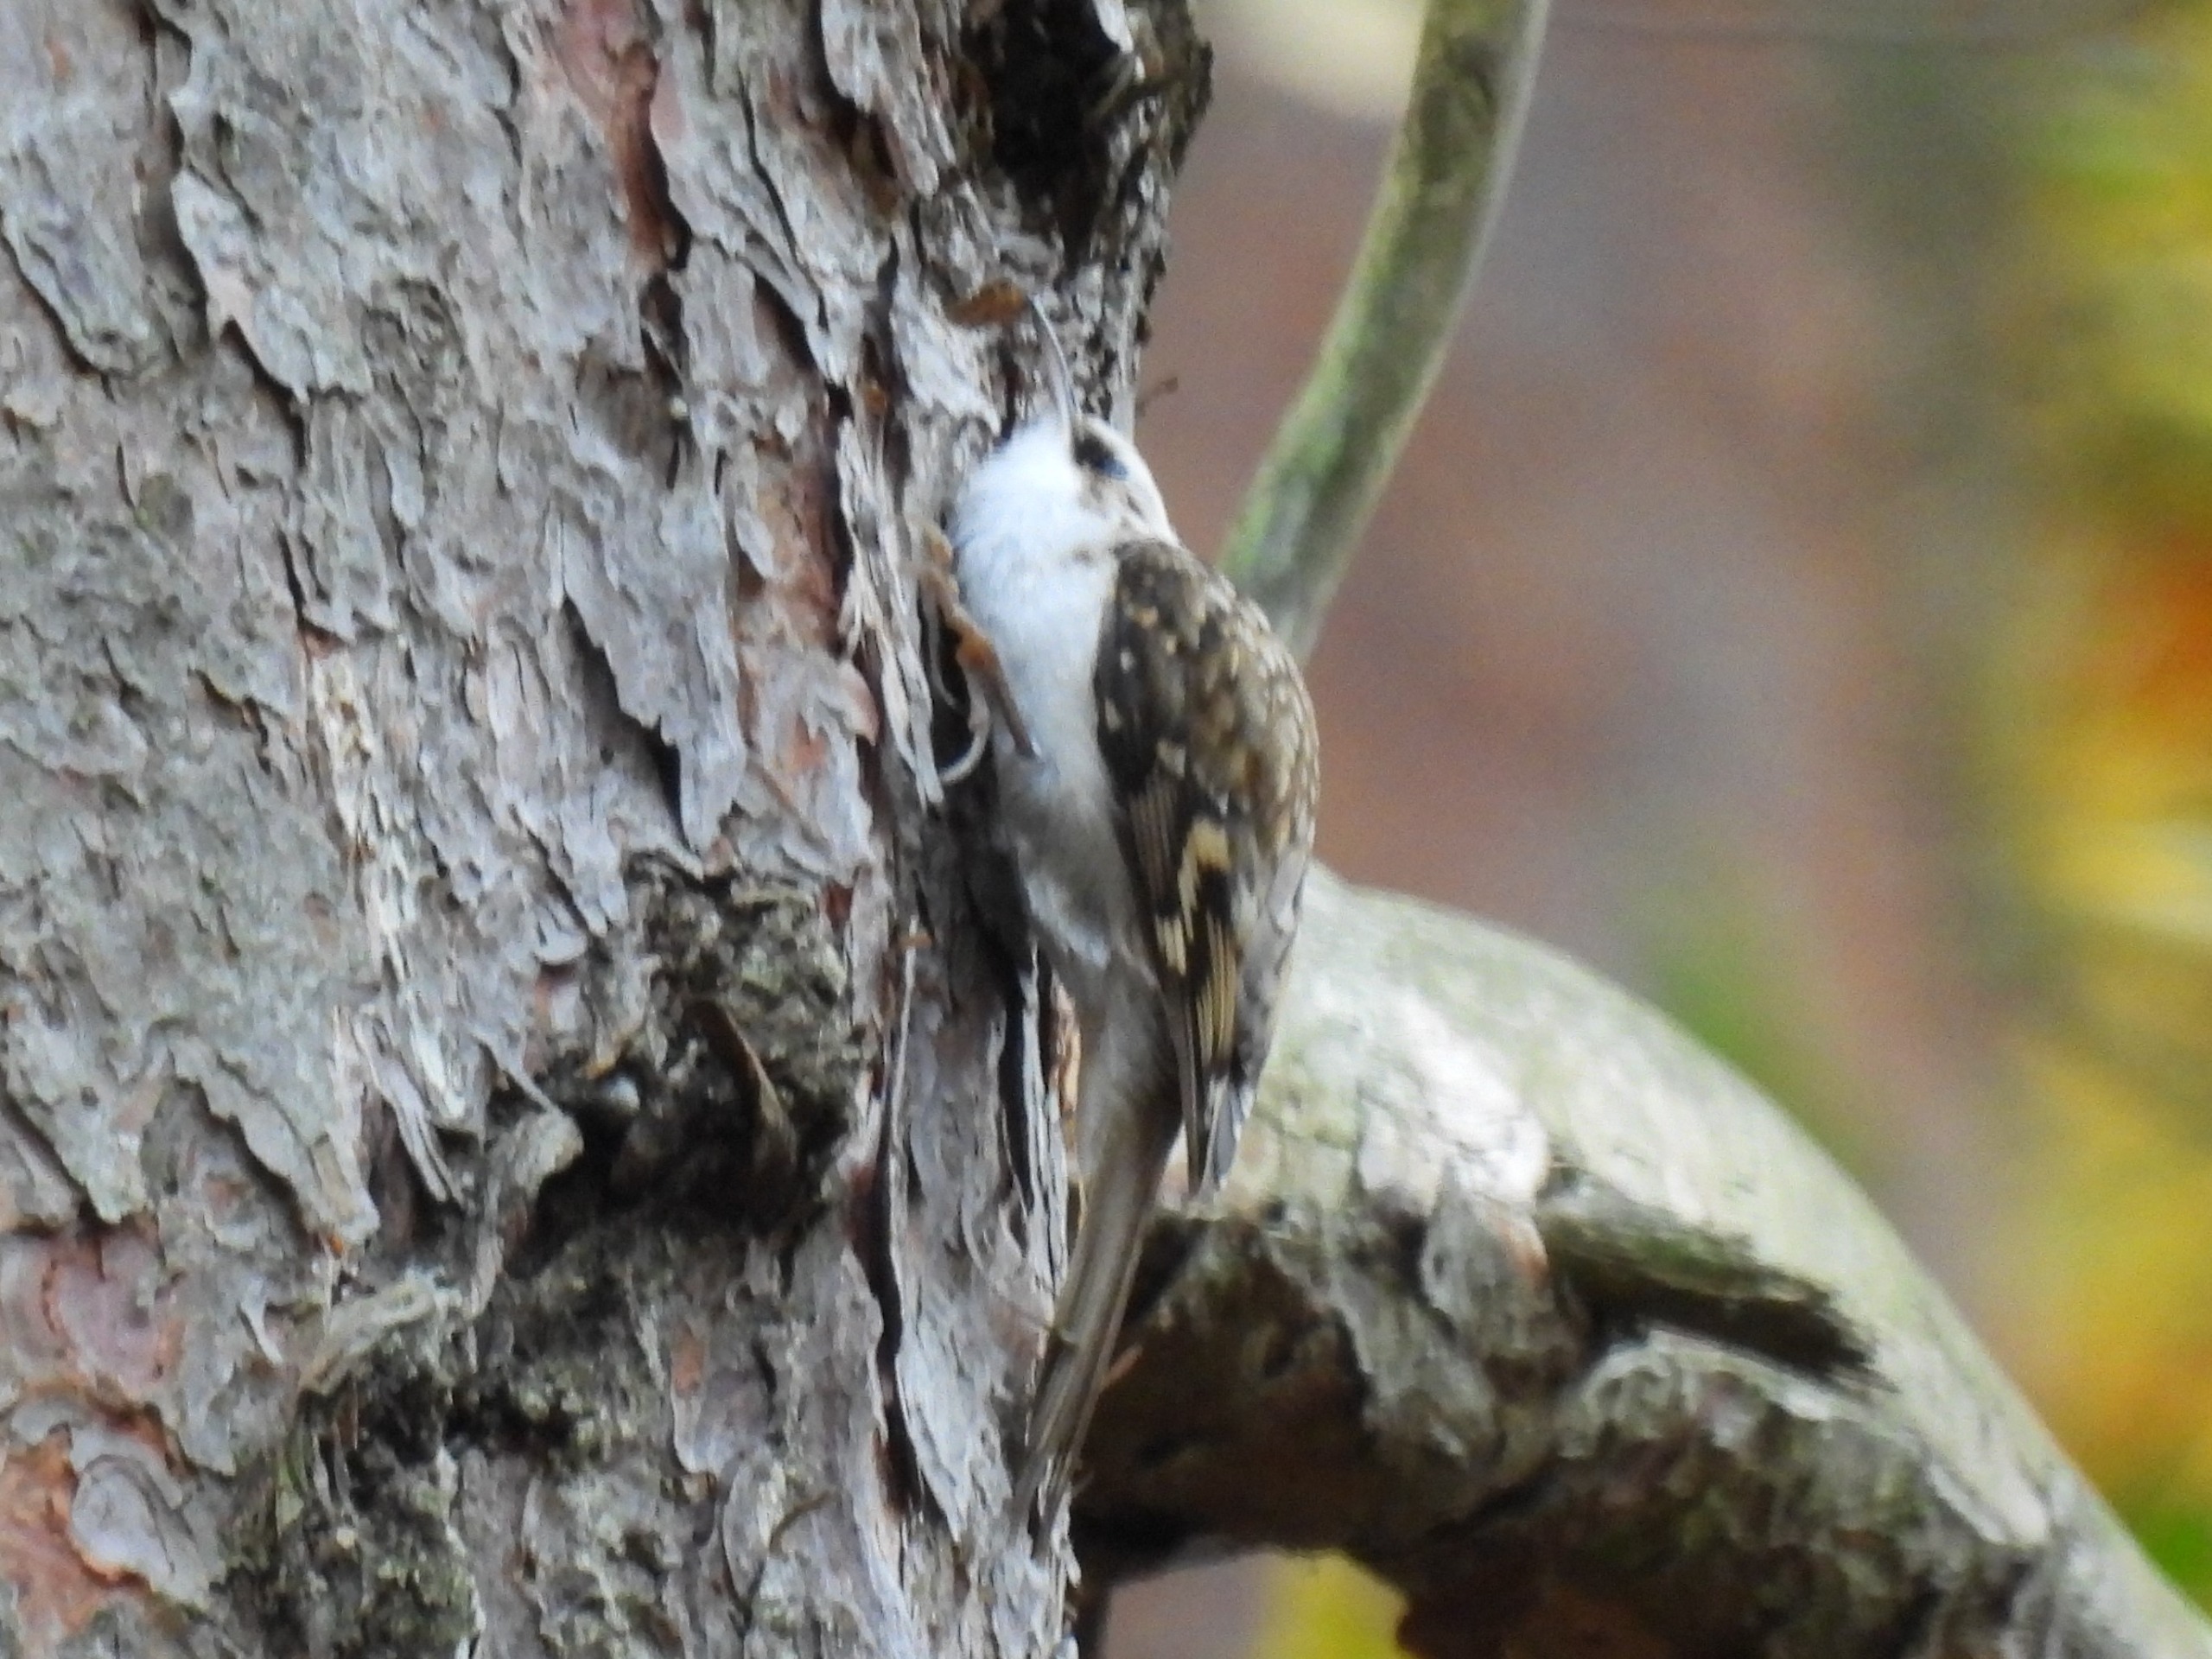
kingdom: Animalia
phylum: Chordata
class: Aves
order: Passeriformes
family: Certhiidae
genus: Certhia
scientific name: Certhia familiaris
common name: Træløber
